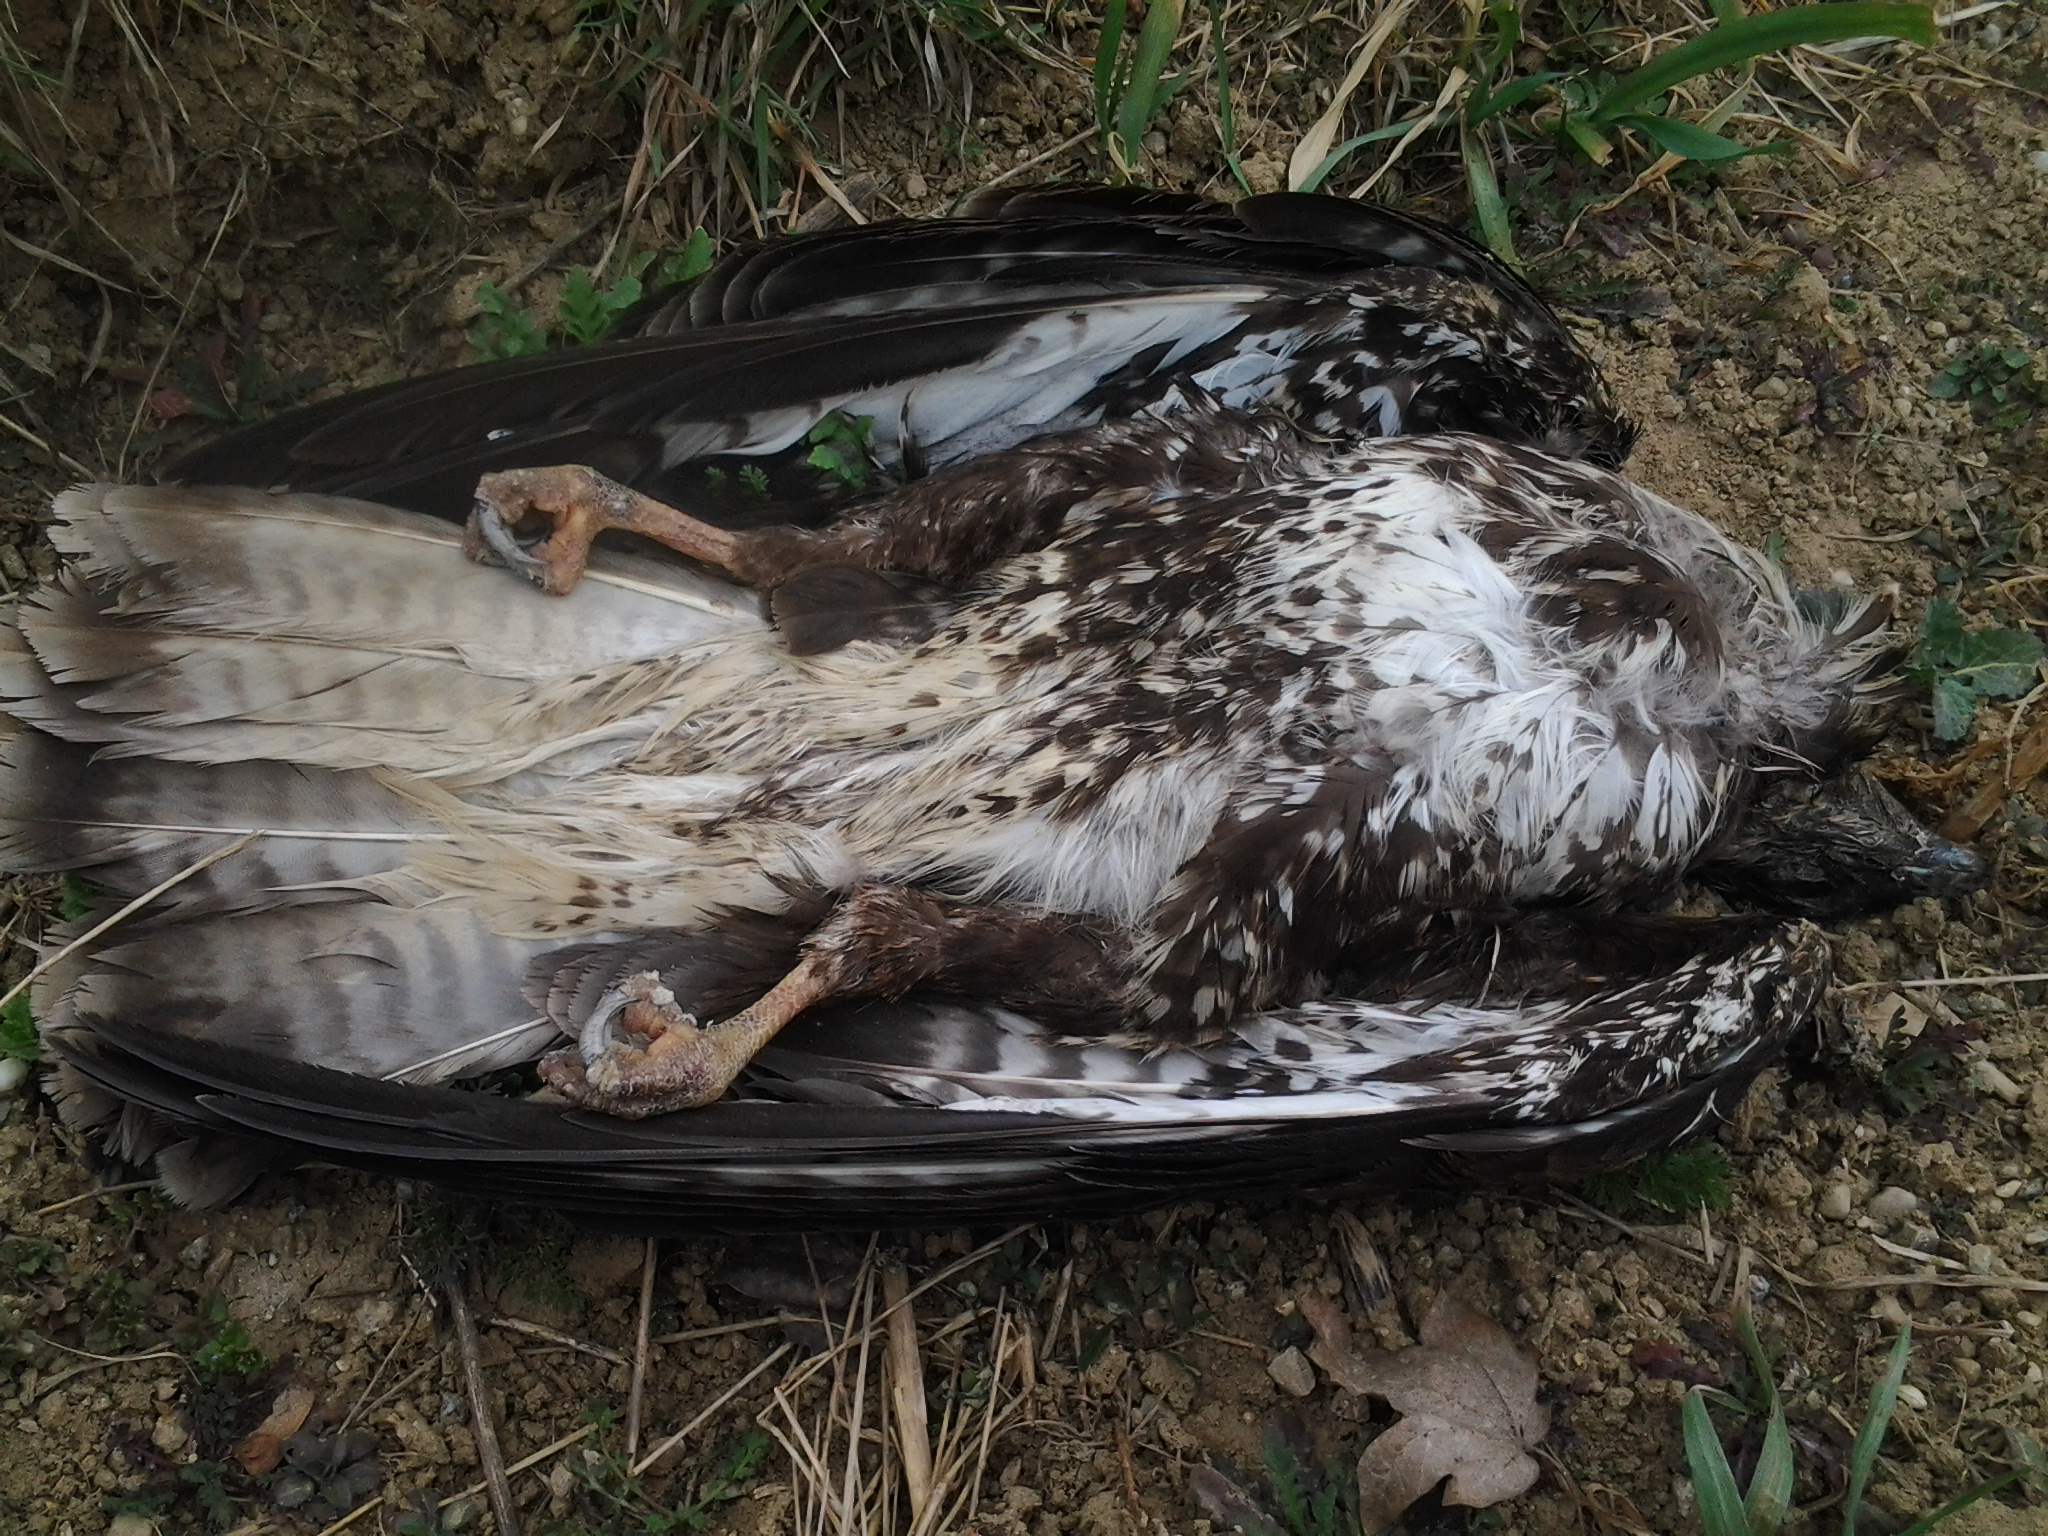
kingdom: Animalia
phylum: Chordata
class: Aves
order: Accipitriformes
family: Accipitridae
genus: Buteo
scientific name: Buteo buteo
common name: Common buzzard
